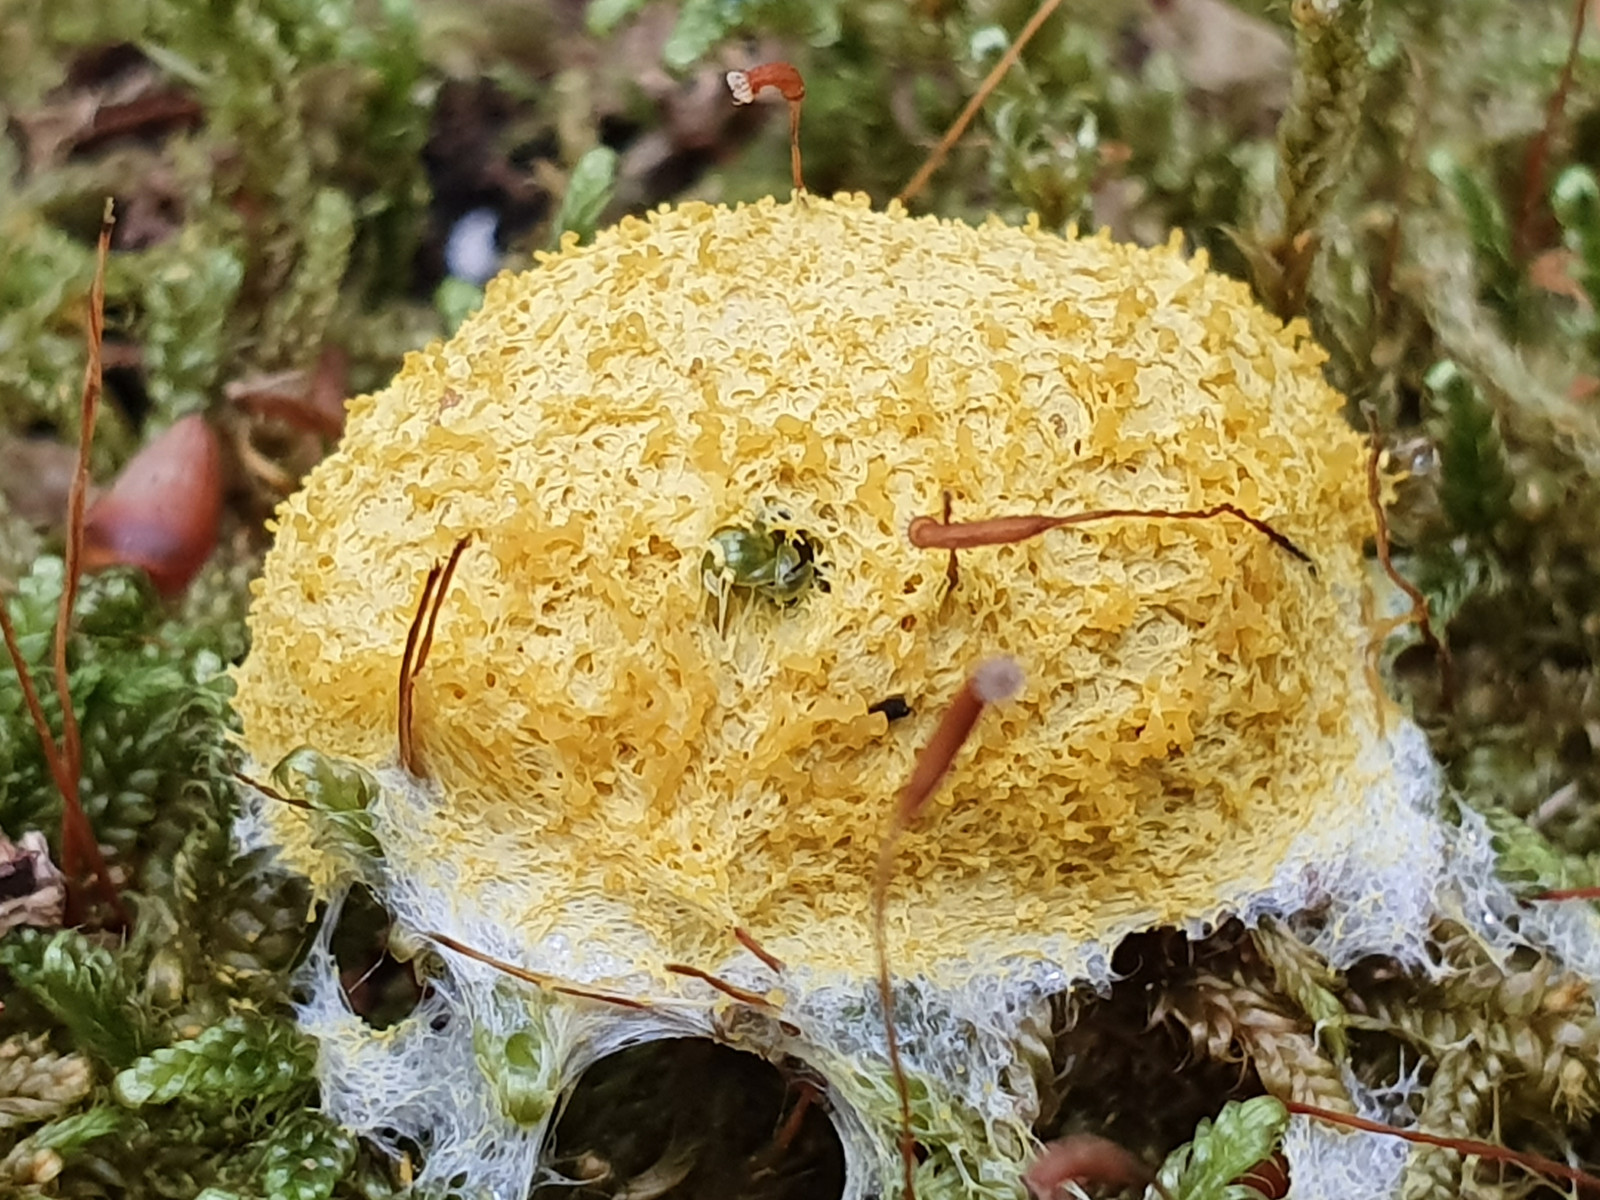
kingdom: Protozoa
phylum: Mycetozoa
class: Myxomycetes
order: Physarales
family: Physaraceae
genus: Fuligo
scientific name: Fuligo septica
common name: gul troldsmør
